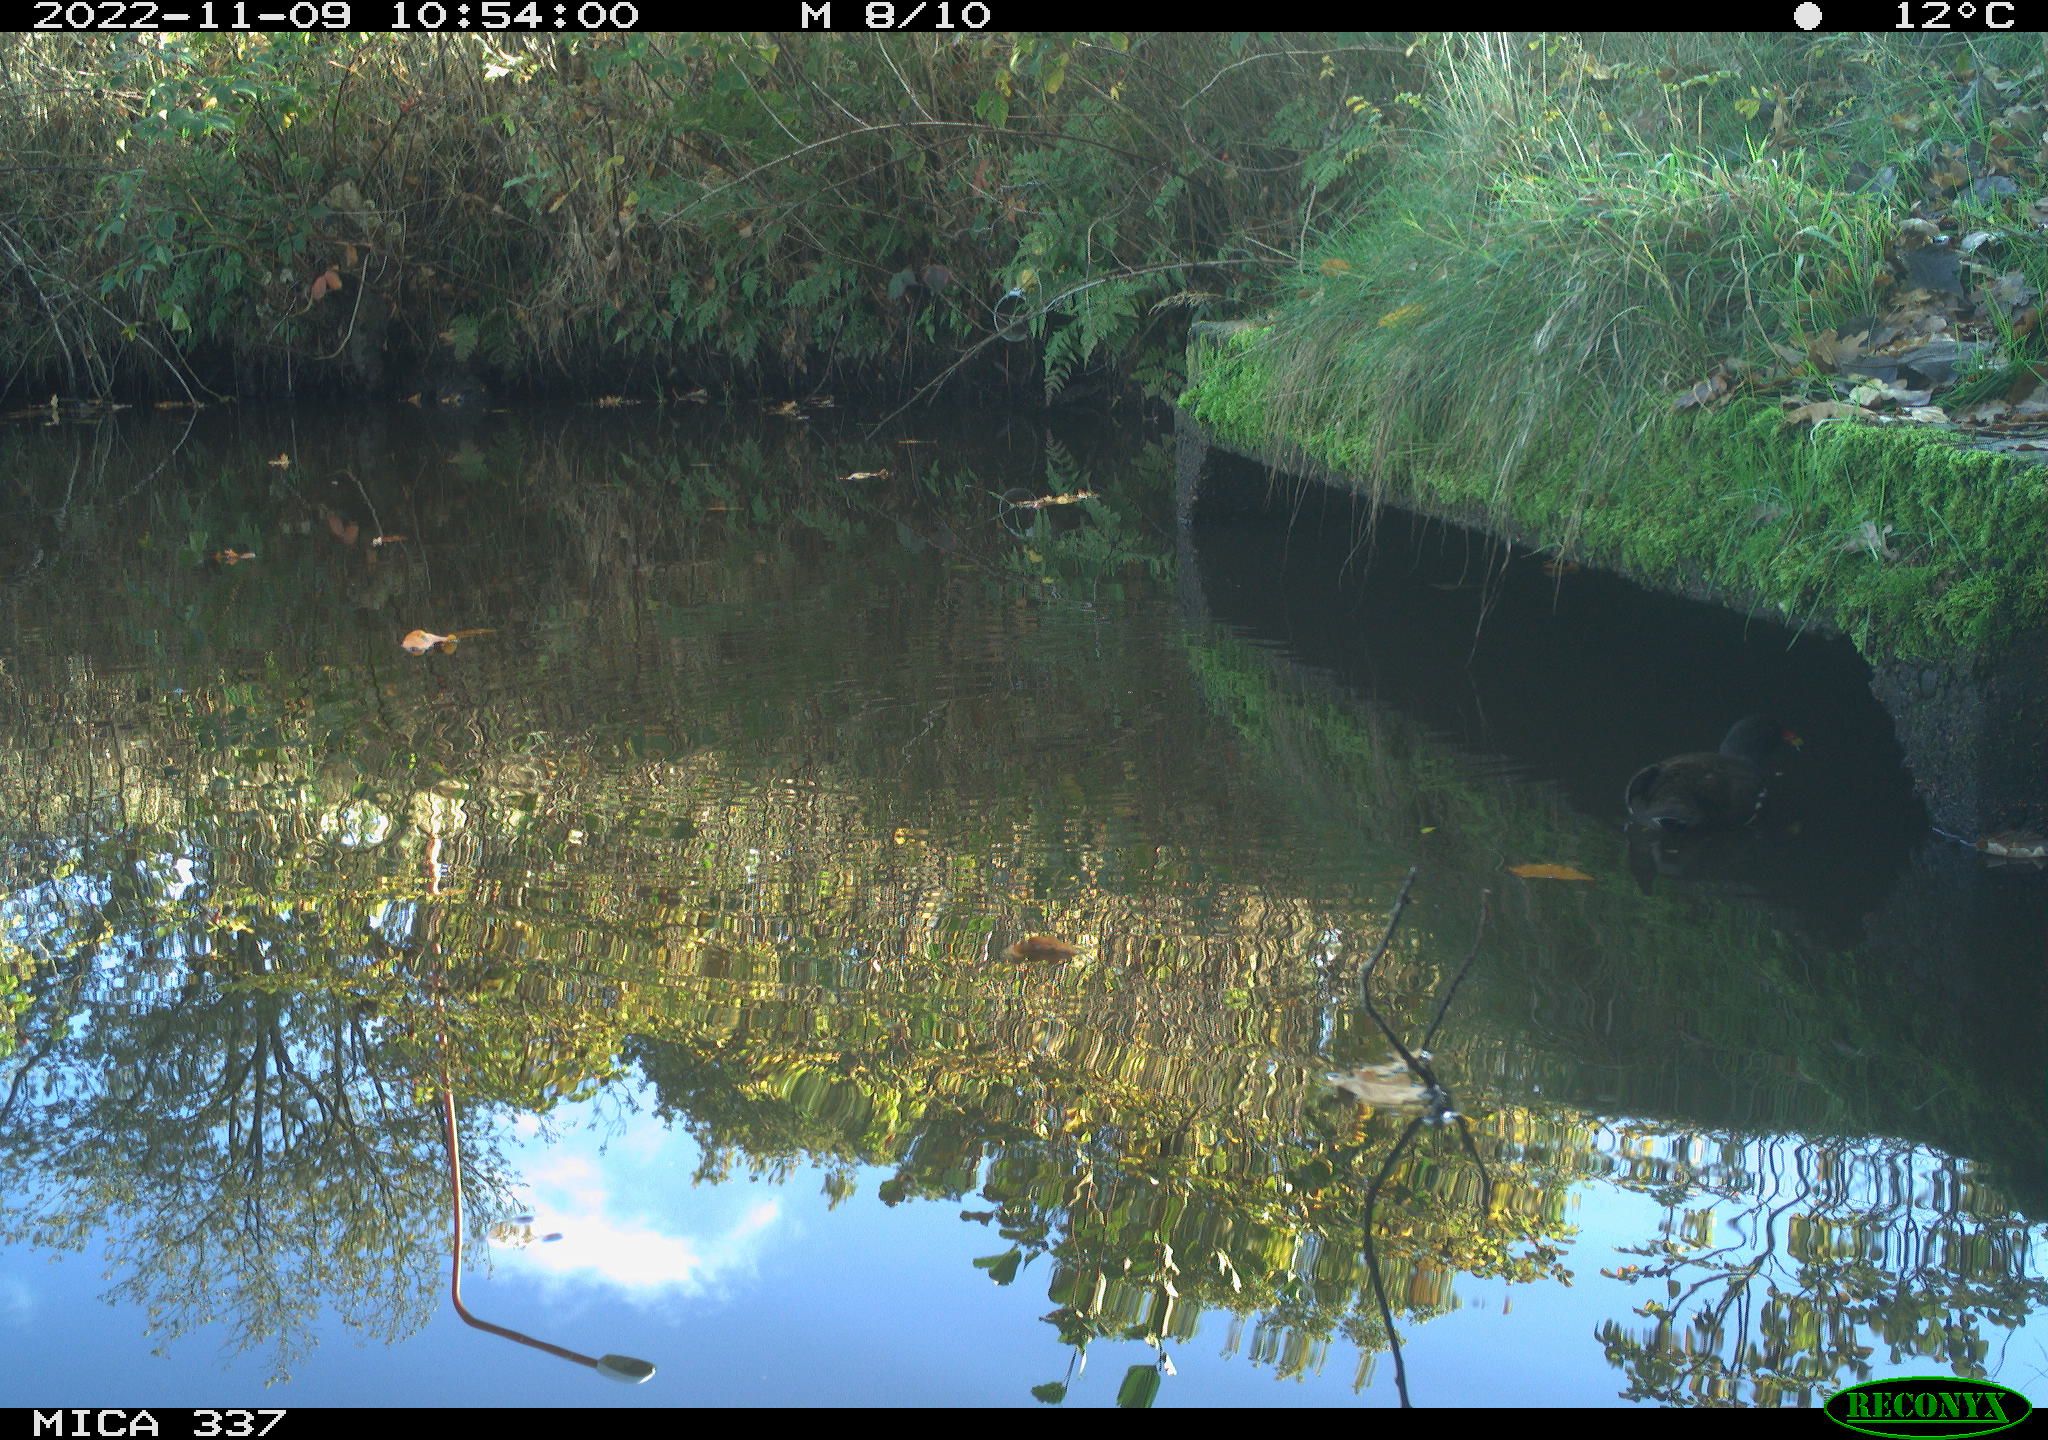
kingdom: Animalia
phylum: Chordata
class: Aves
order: Gruiformes
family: Rallidae
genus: Gallinula
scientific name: Gallinula chloropus
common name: Common moorhen
